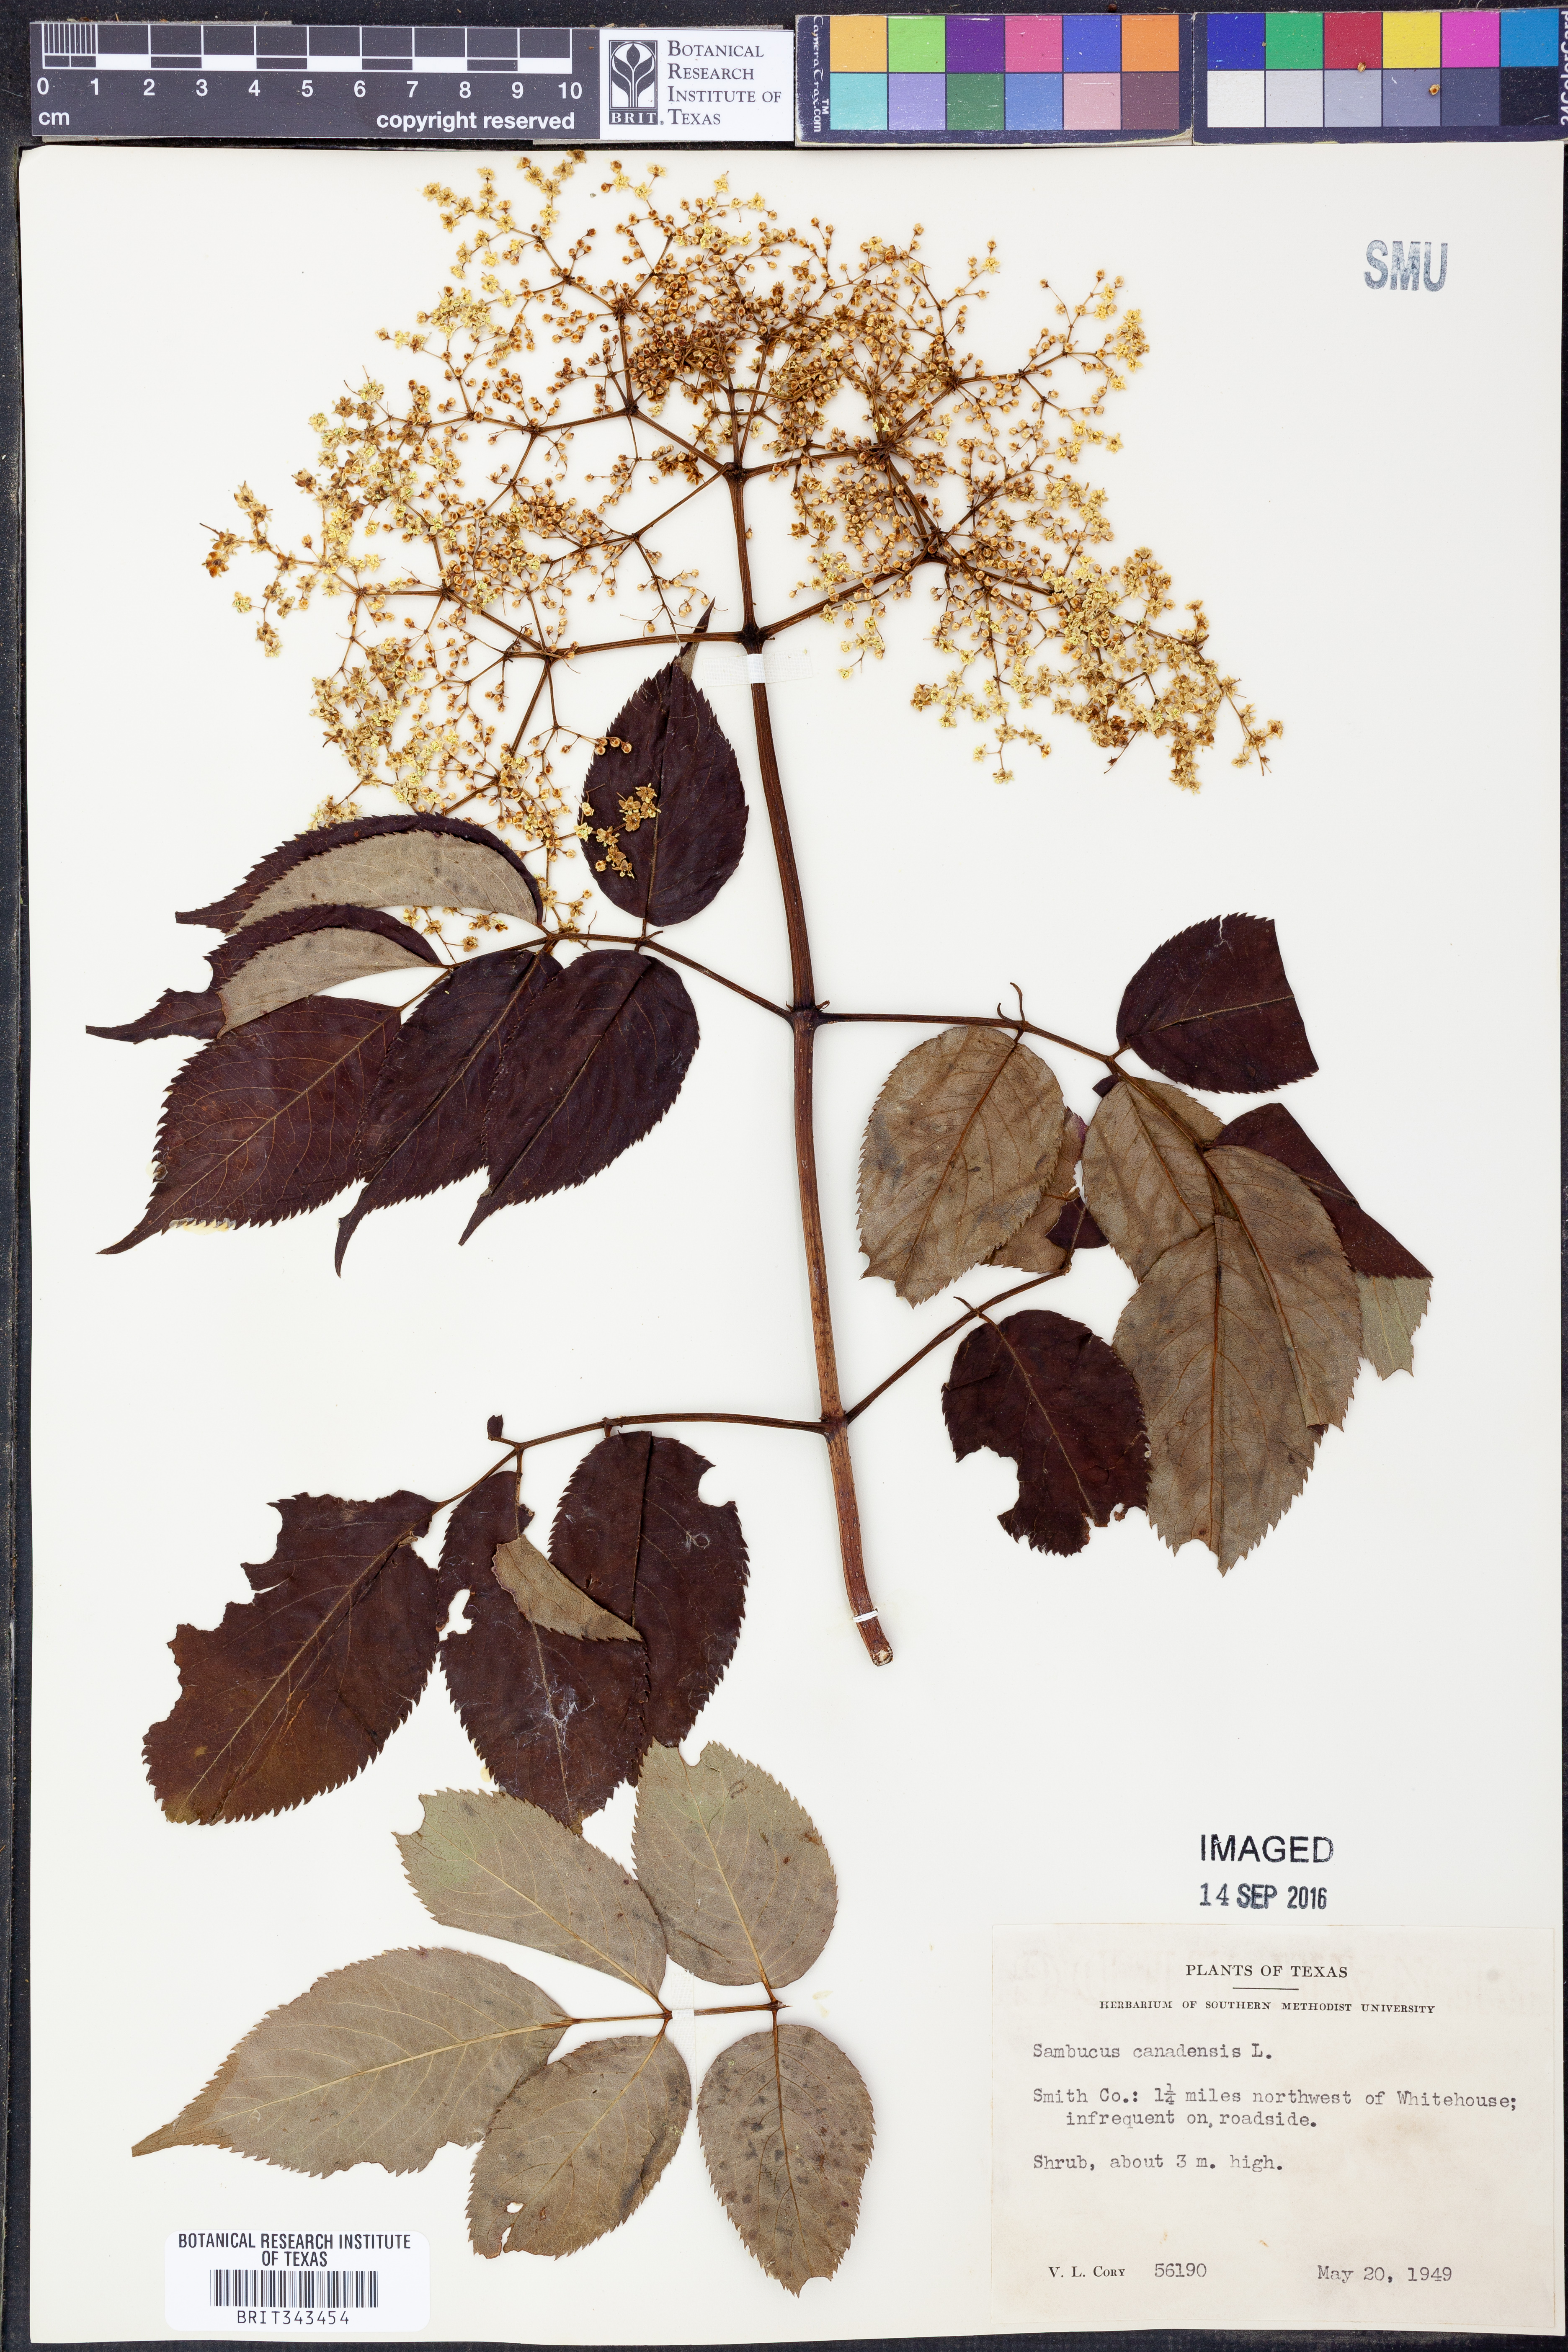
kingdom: Plantae
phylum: Tracheophyta
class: Magnoliopsida
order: Dipsacales
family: Viburnaceae
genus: Sambucus
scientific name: Sambucus canadensis
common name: American elder
